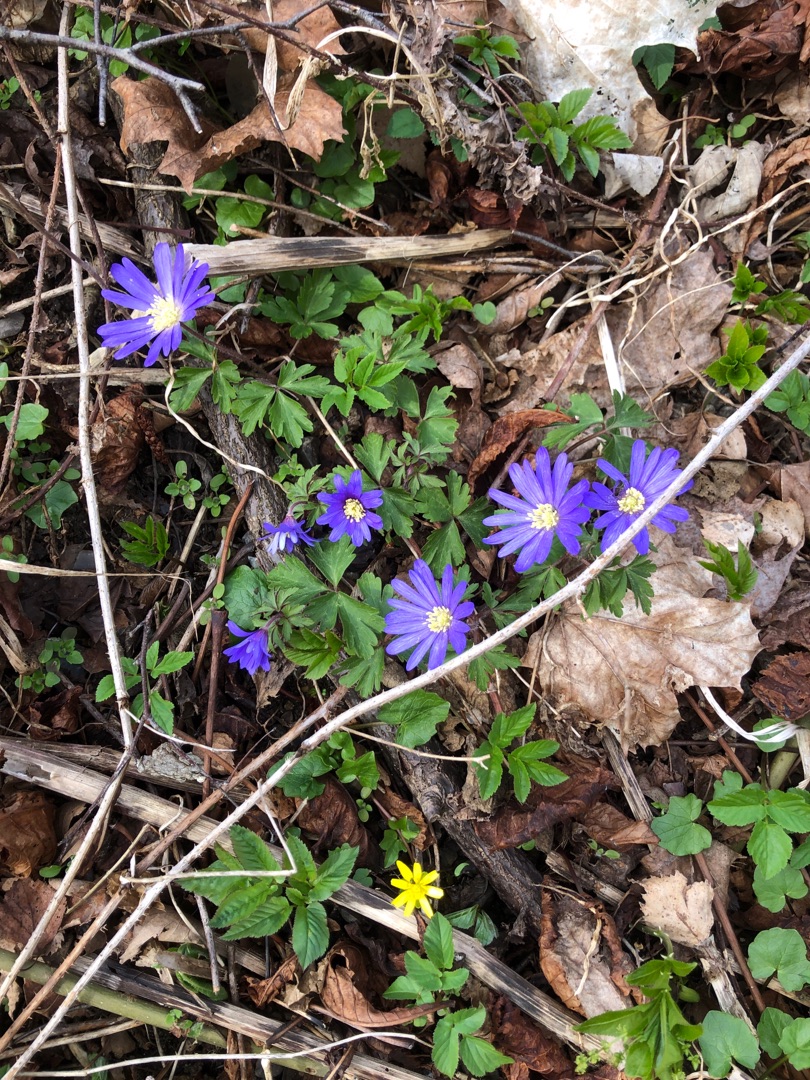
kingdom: Plantae
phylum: Tracheophyta
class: Magnoliopsida
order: Ranunculales
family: Ranunculaceae
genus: Anemone
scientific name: Anemone blanda
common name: Balkan-anemone
